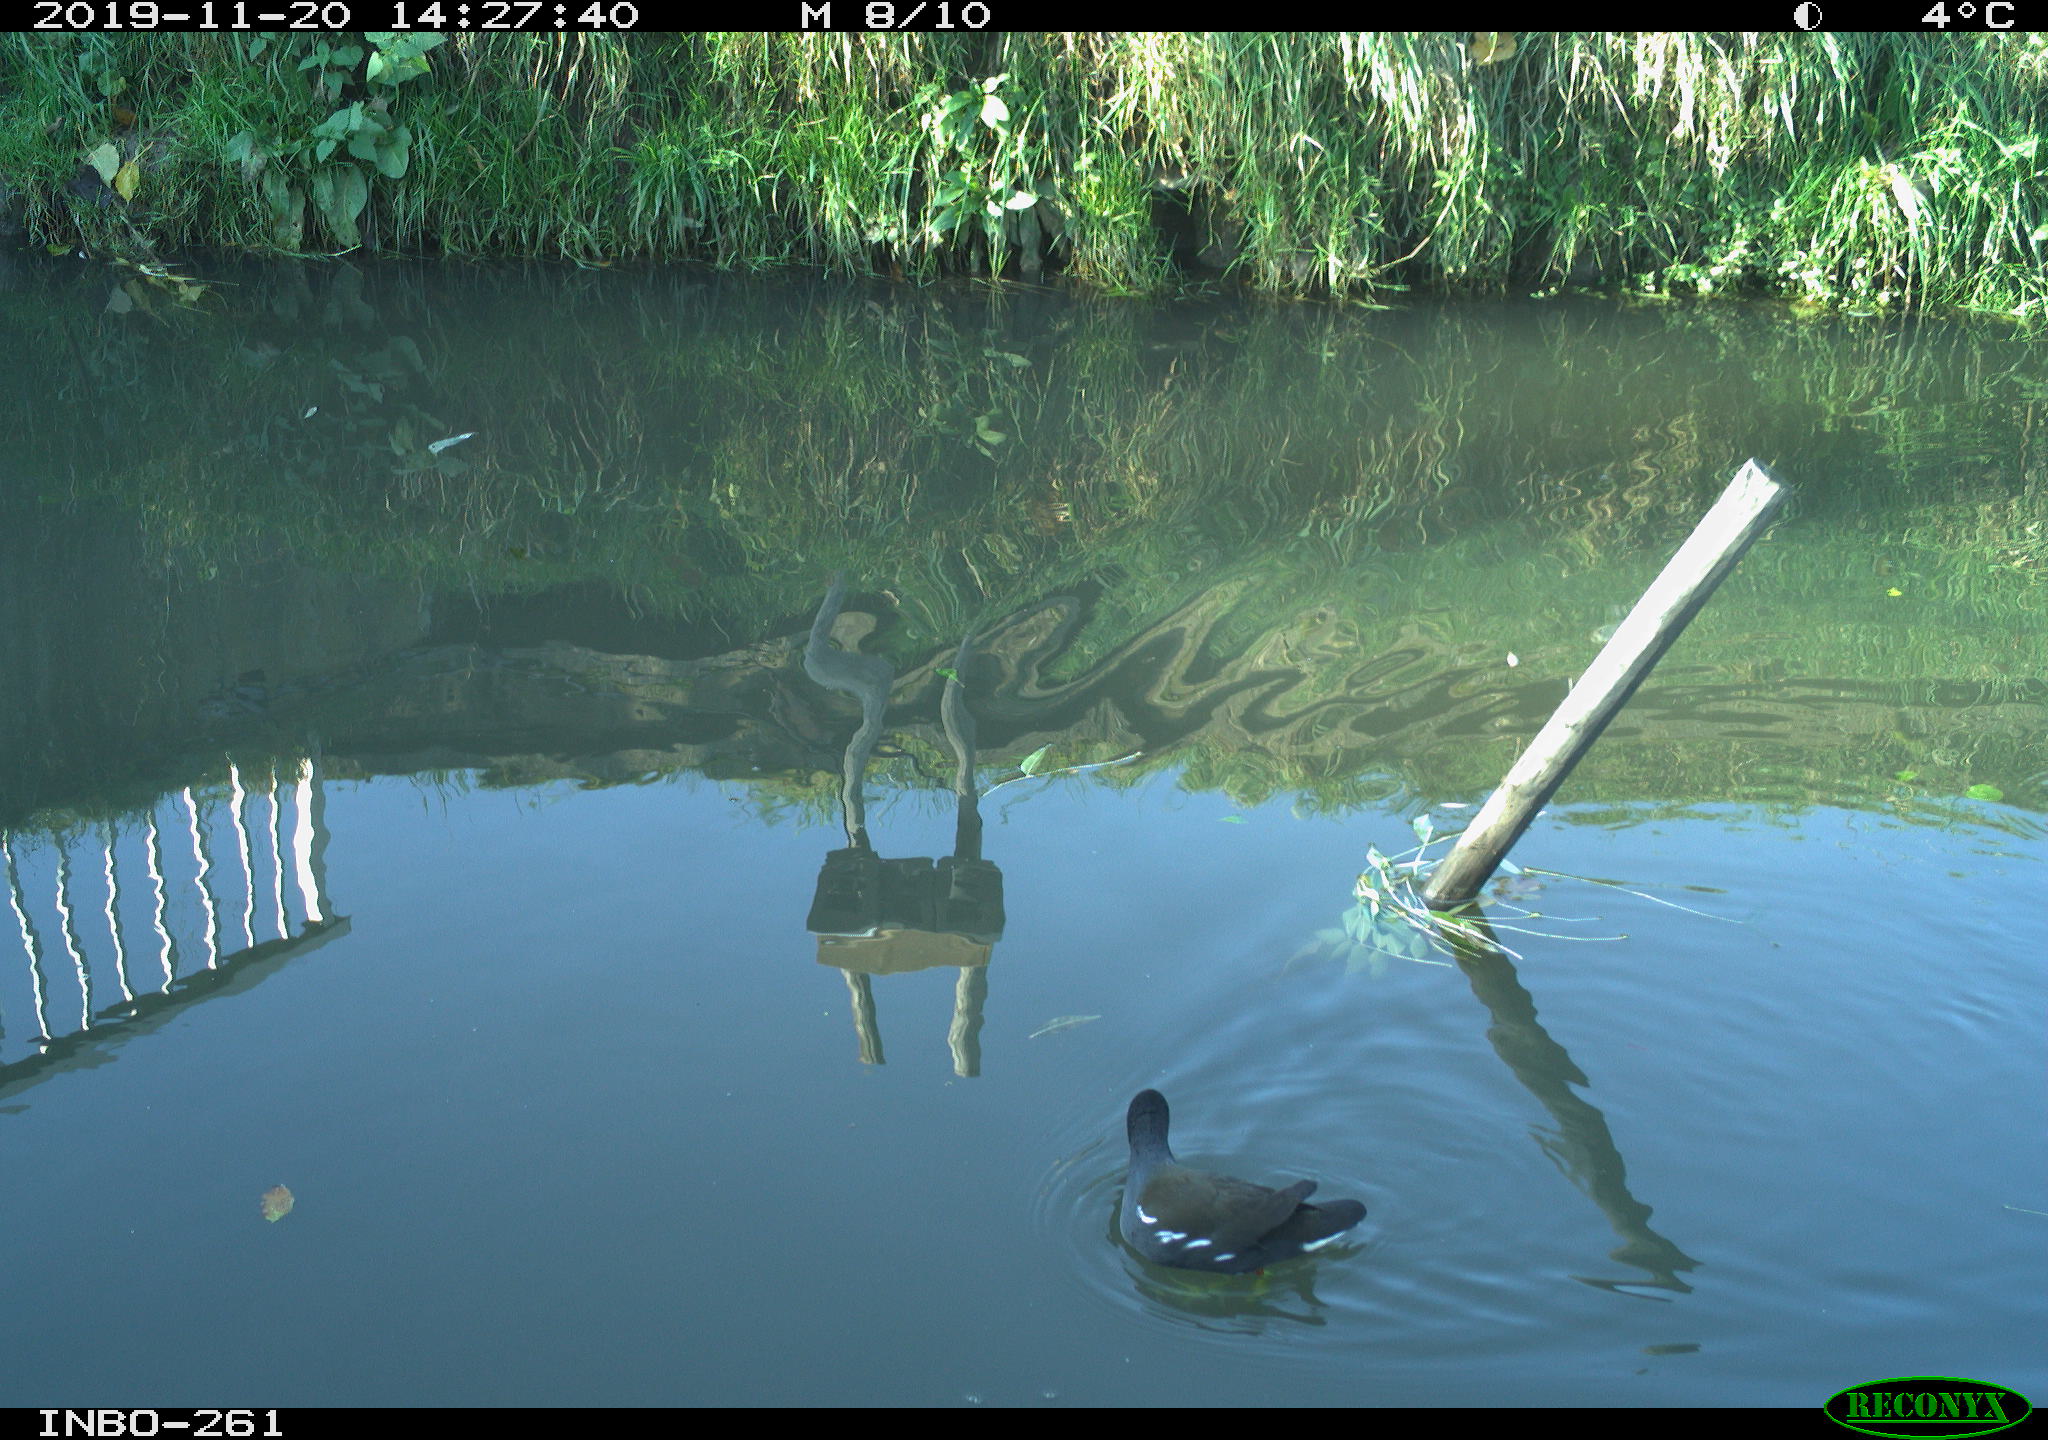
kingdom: Animalia
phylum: Chordata
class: Aves
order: Gruiformes
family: Rallidae
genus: Gallinula
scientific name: Gallinula chloropus
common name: Common moorhen
